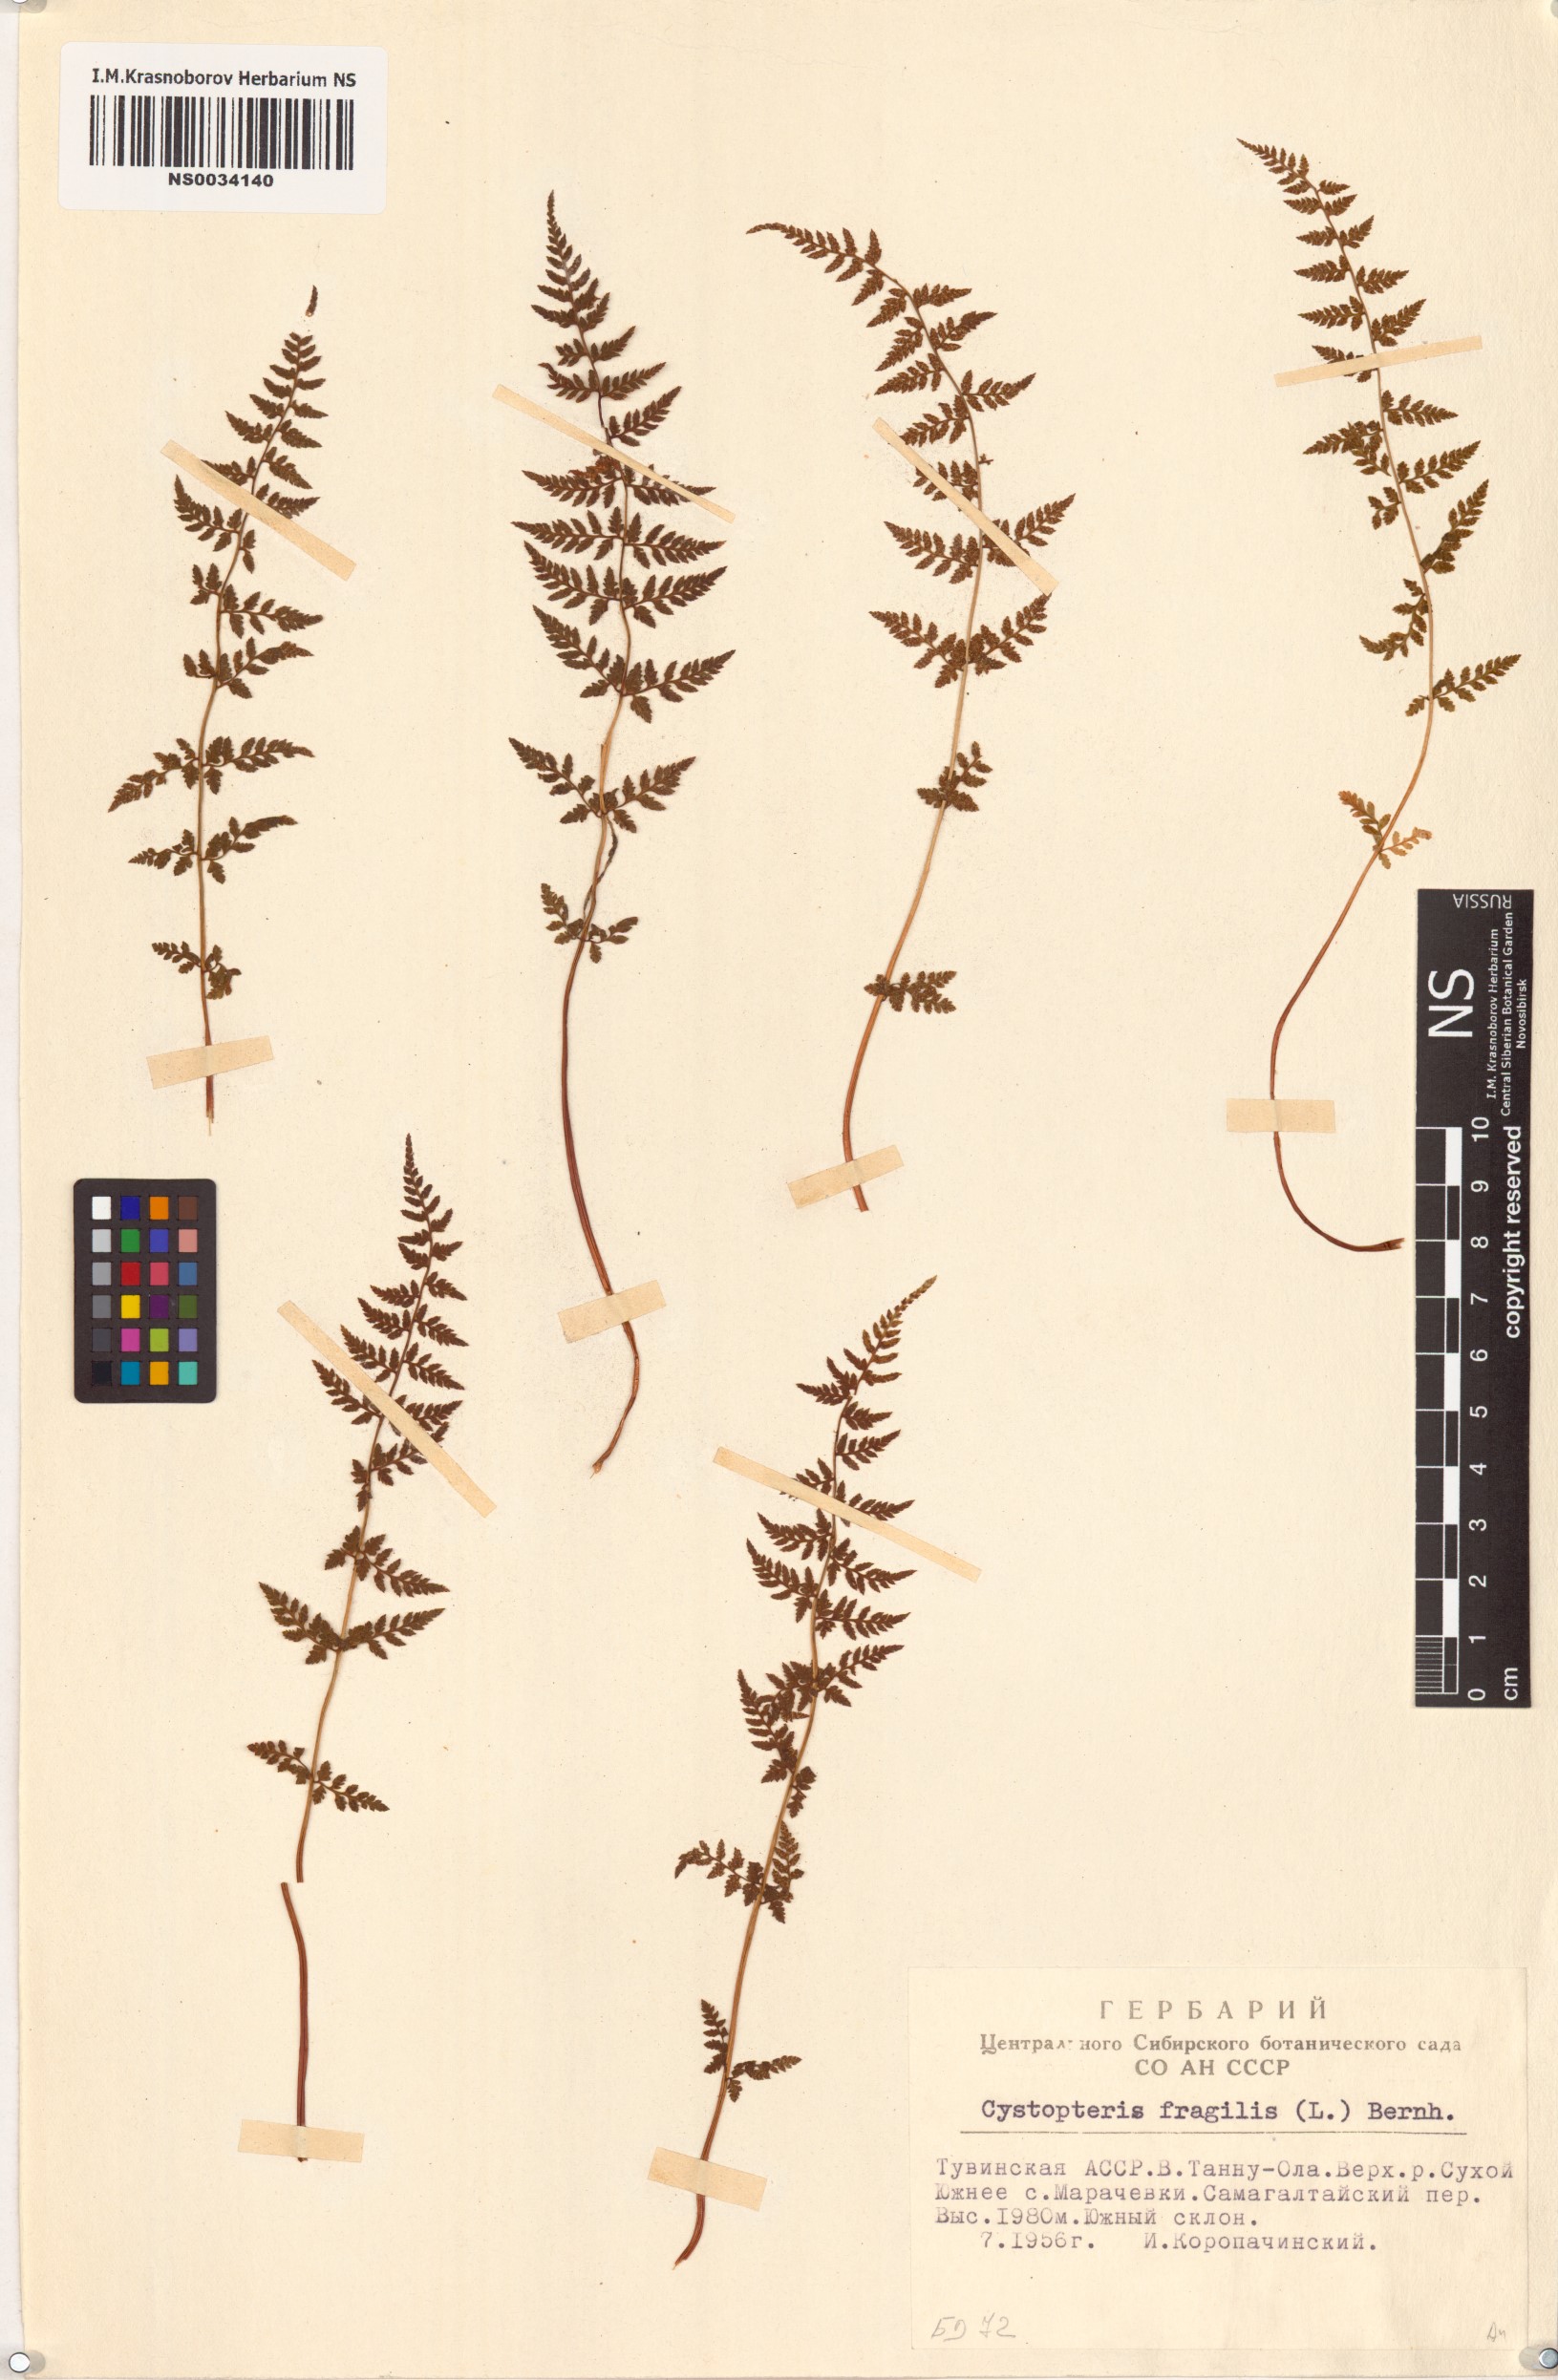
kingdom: Plantae
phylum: Tracheophyta
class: Polypodiopsida
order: Polypodiales
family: Cystopteridaceae
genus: Cystopteris
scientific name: Cystopteris fragilis
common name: Brittle bladder fern
